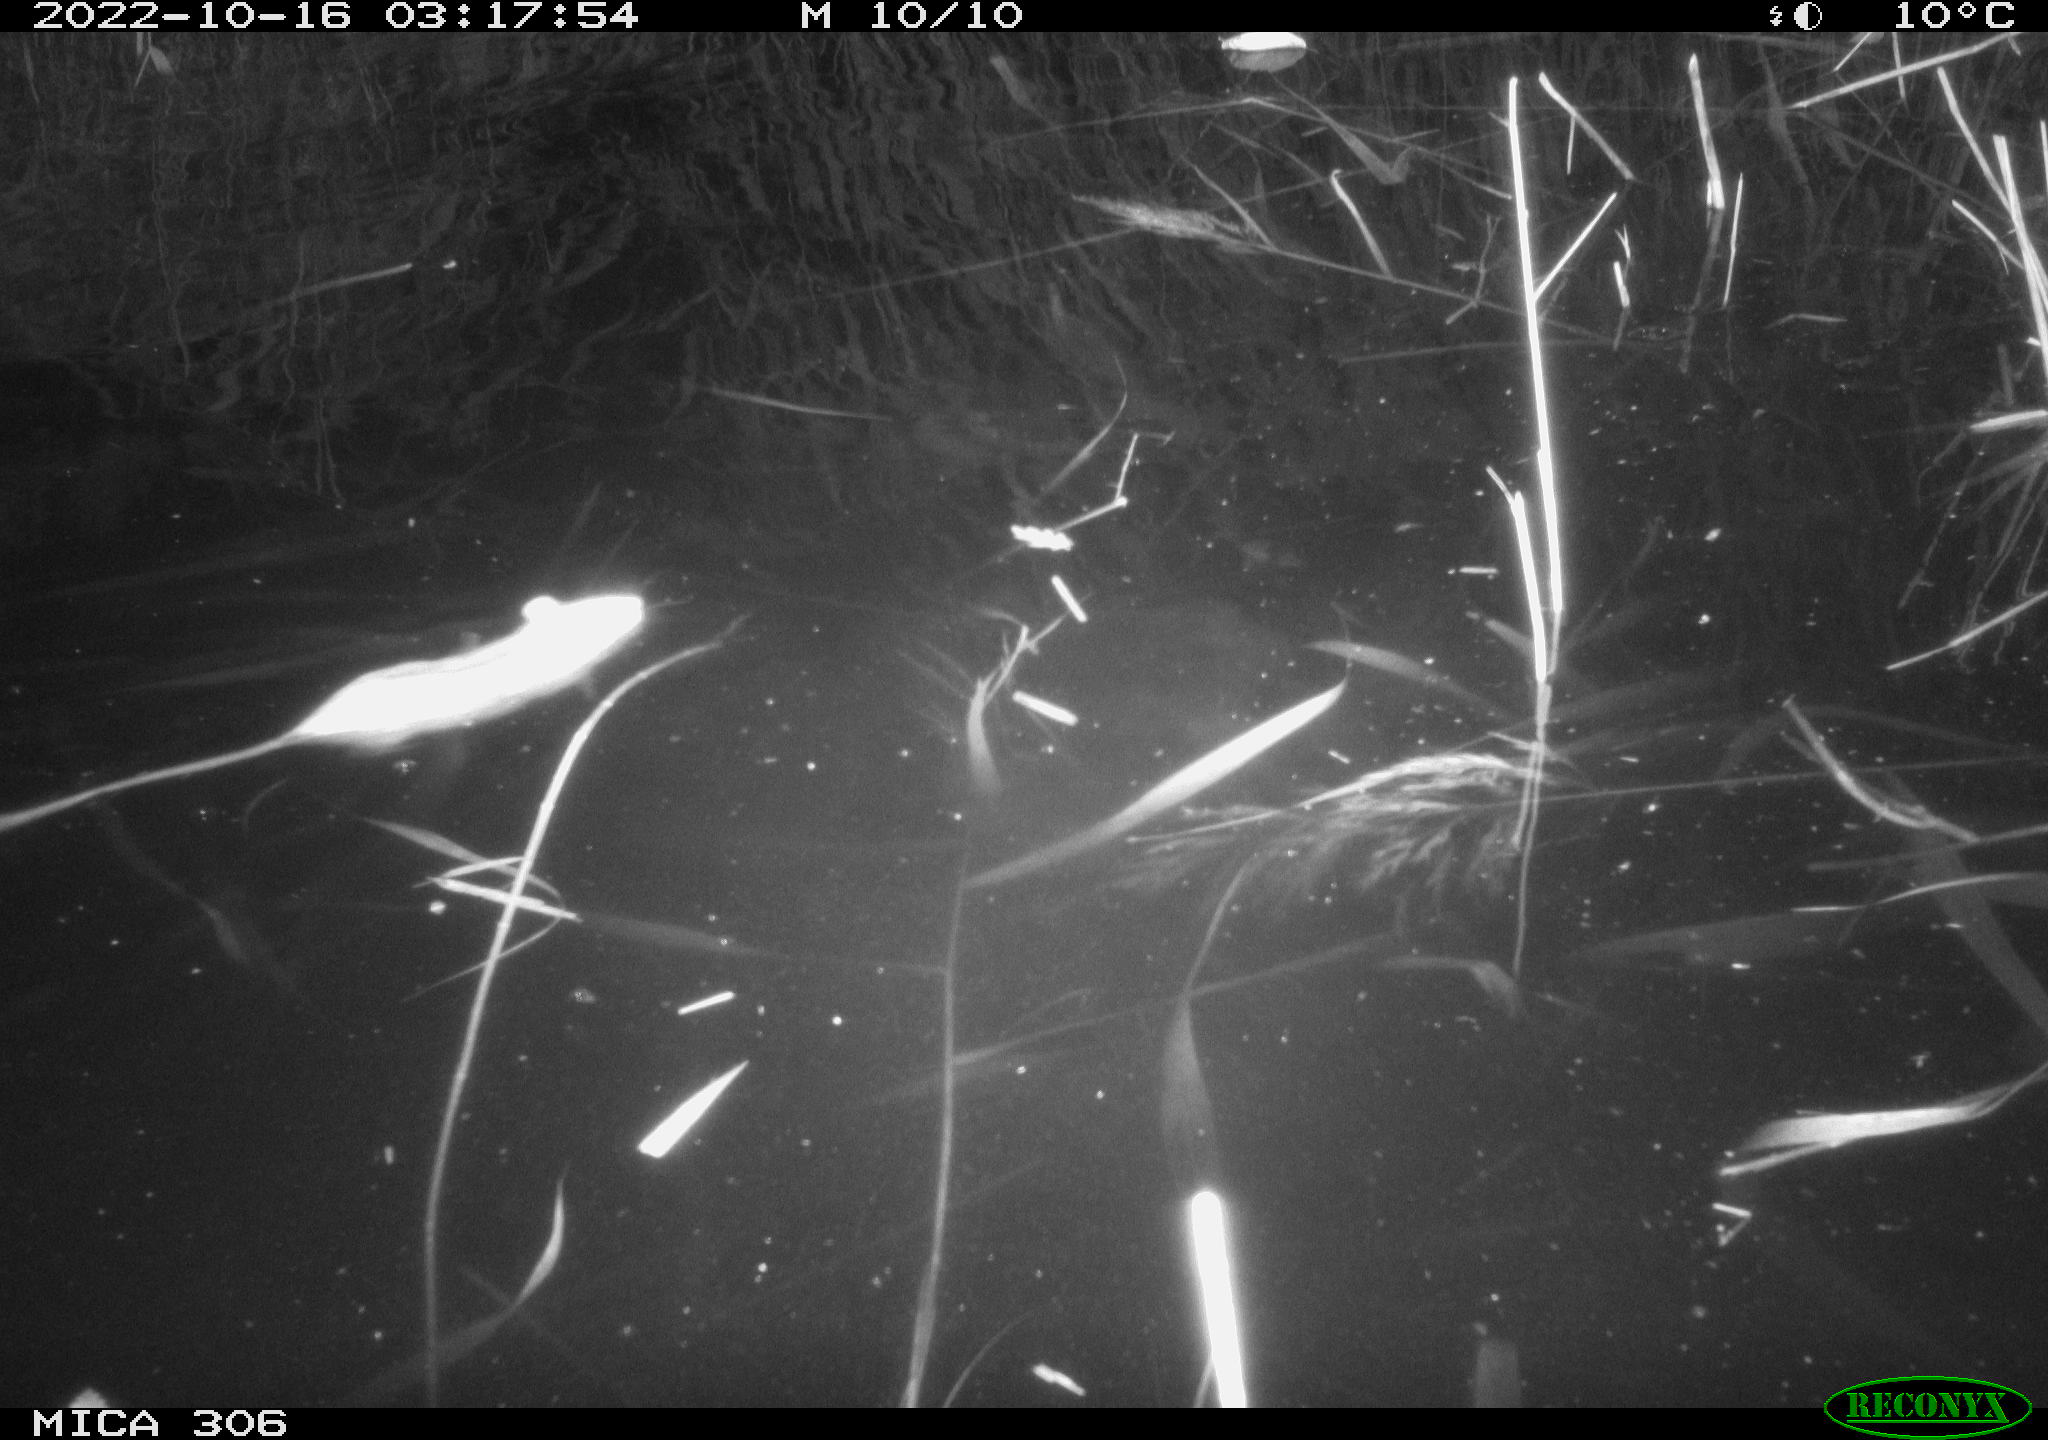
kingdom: Animalia
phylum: Chordata
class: Mammalia
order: Rodentia
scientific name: Rodentia
